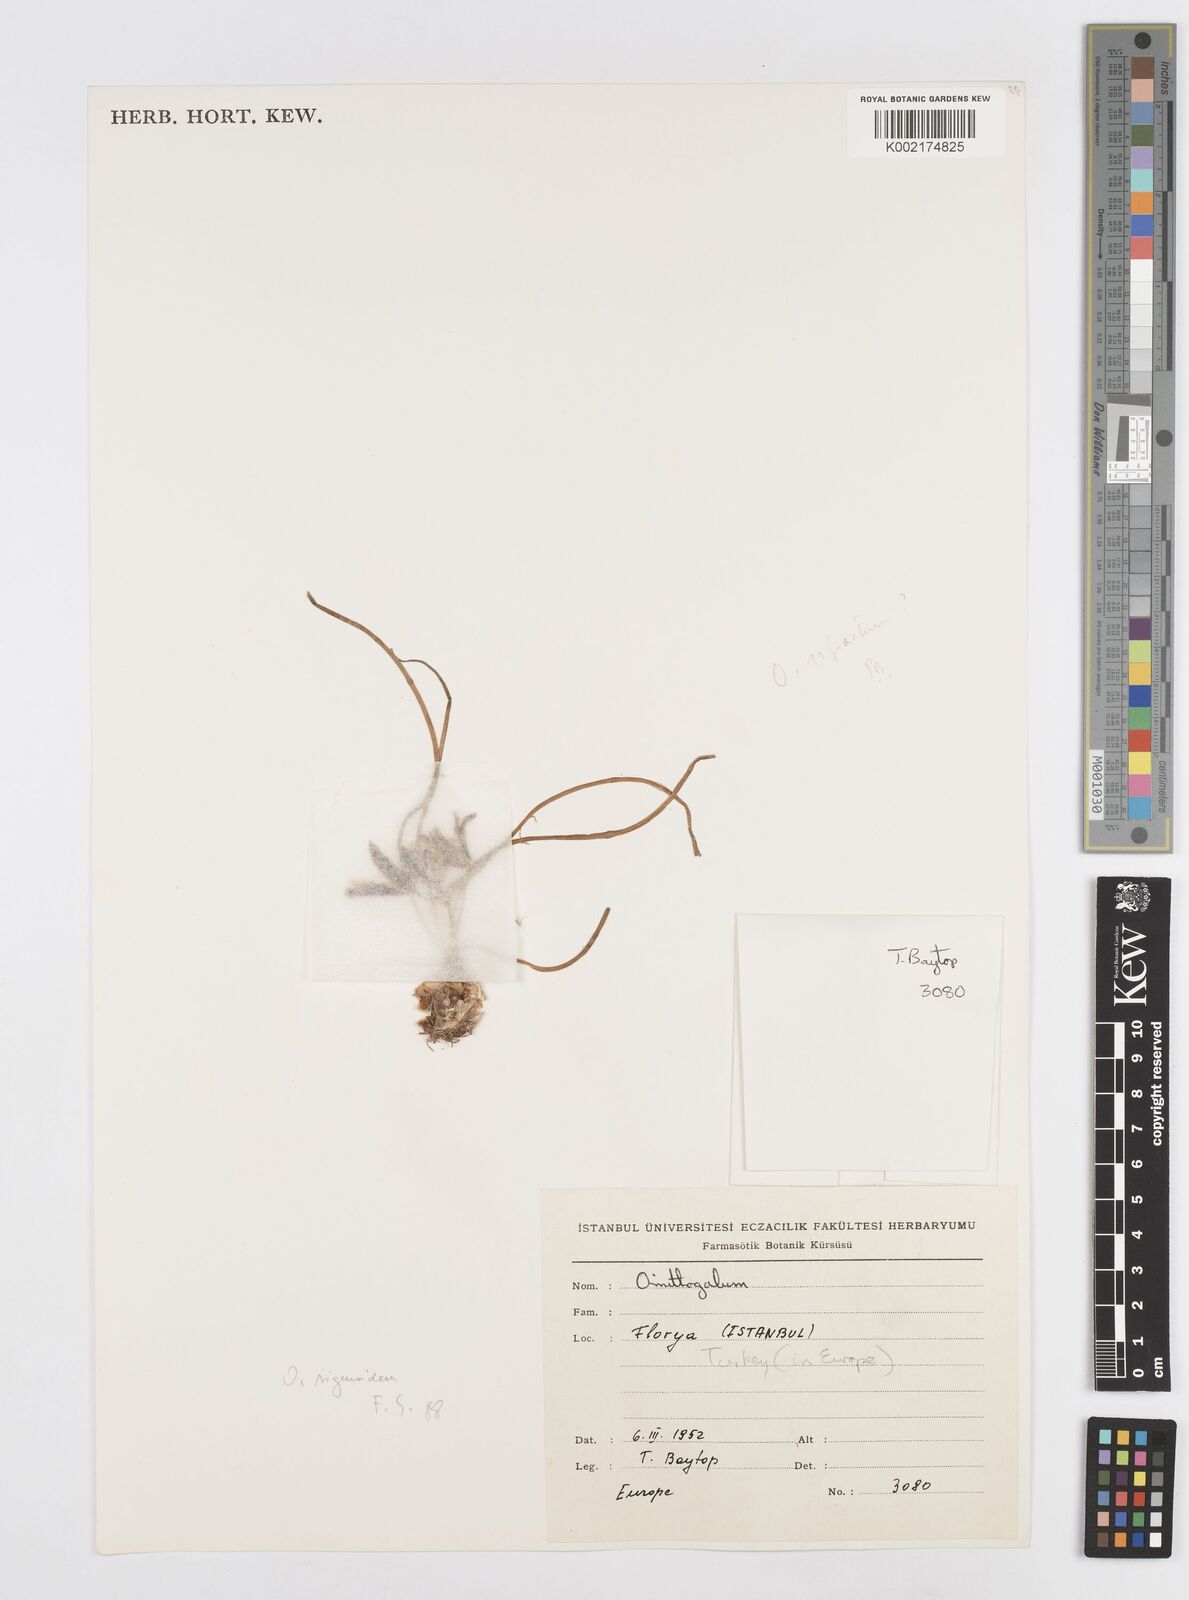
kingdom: Plantae
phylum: Tracheophyta
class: Liliopsida
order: Asparagales
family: Asparagaceae
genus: Ornithogalum
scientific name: Ornithogalum sigmoideum
